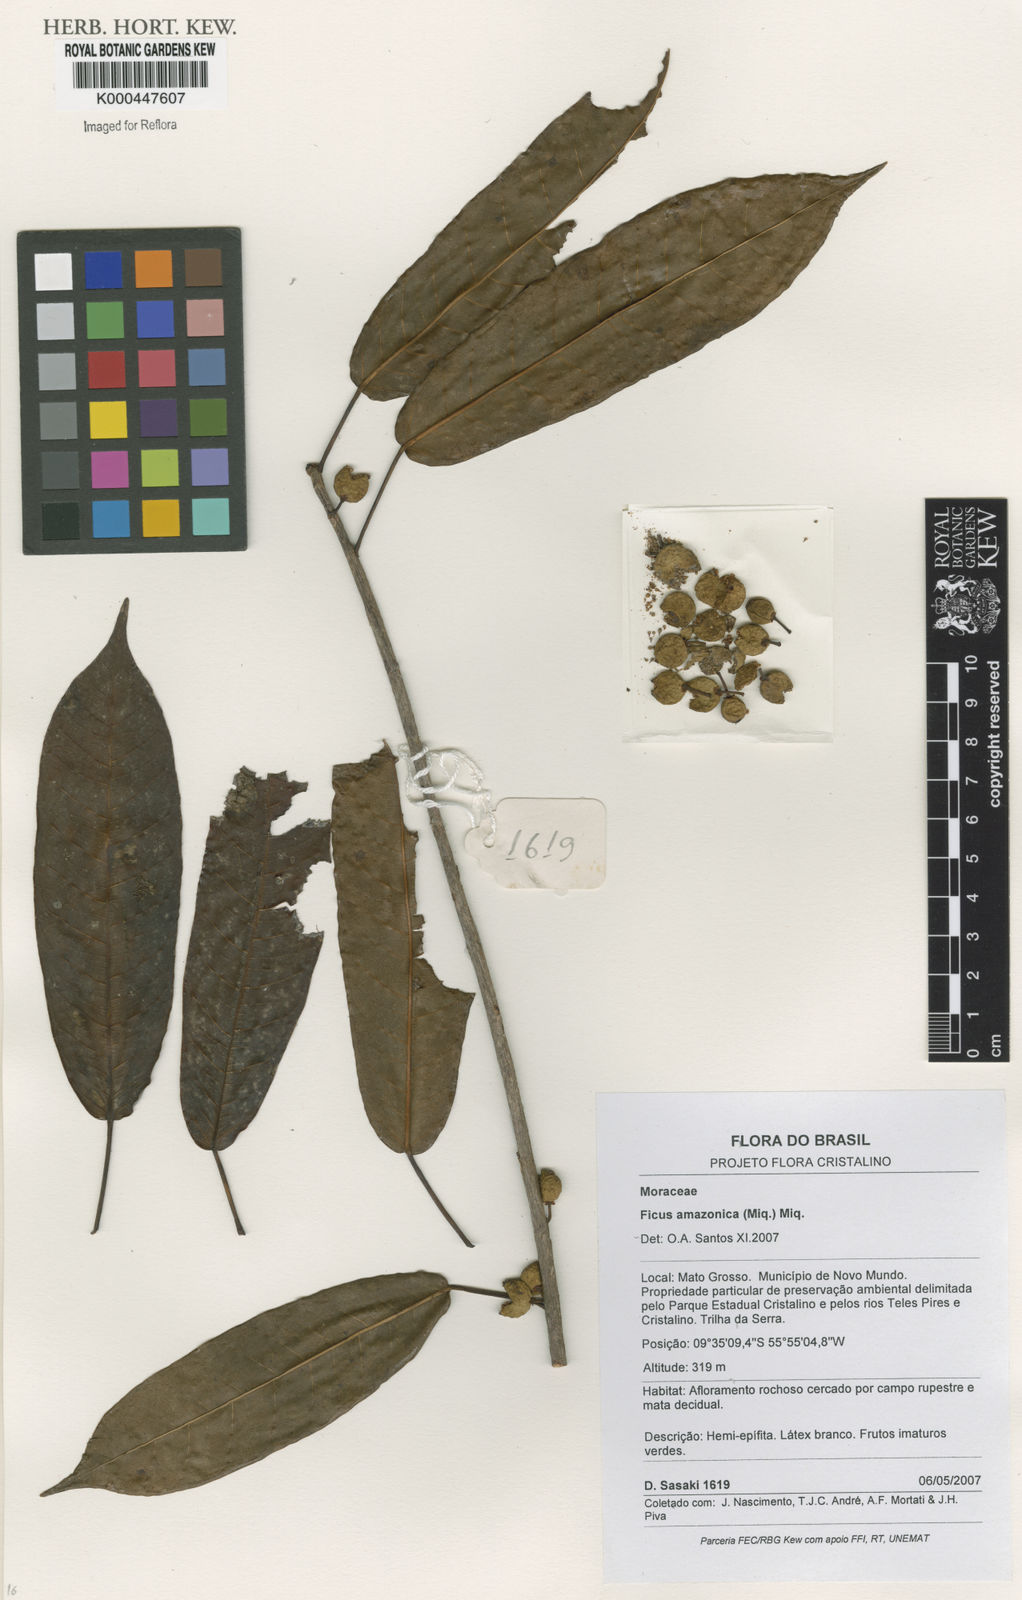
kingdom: Plantae
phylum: Tracheophyta
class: Magnoliopsida
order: Rosales
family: Moraceae
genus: Ficus
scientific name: Ficus amazonica
